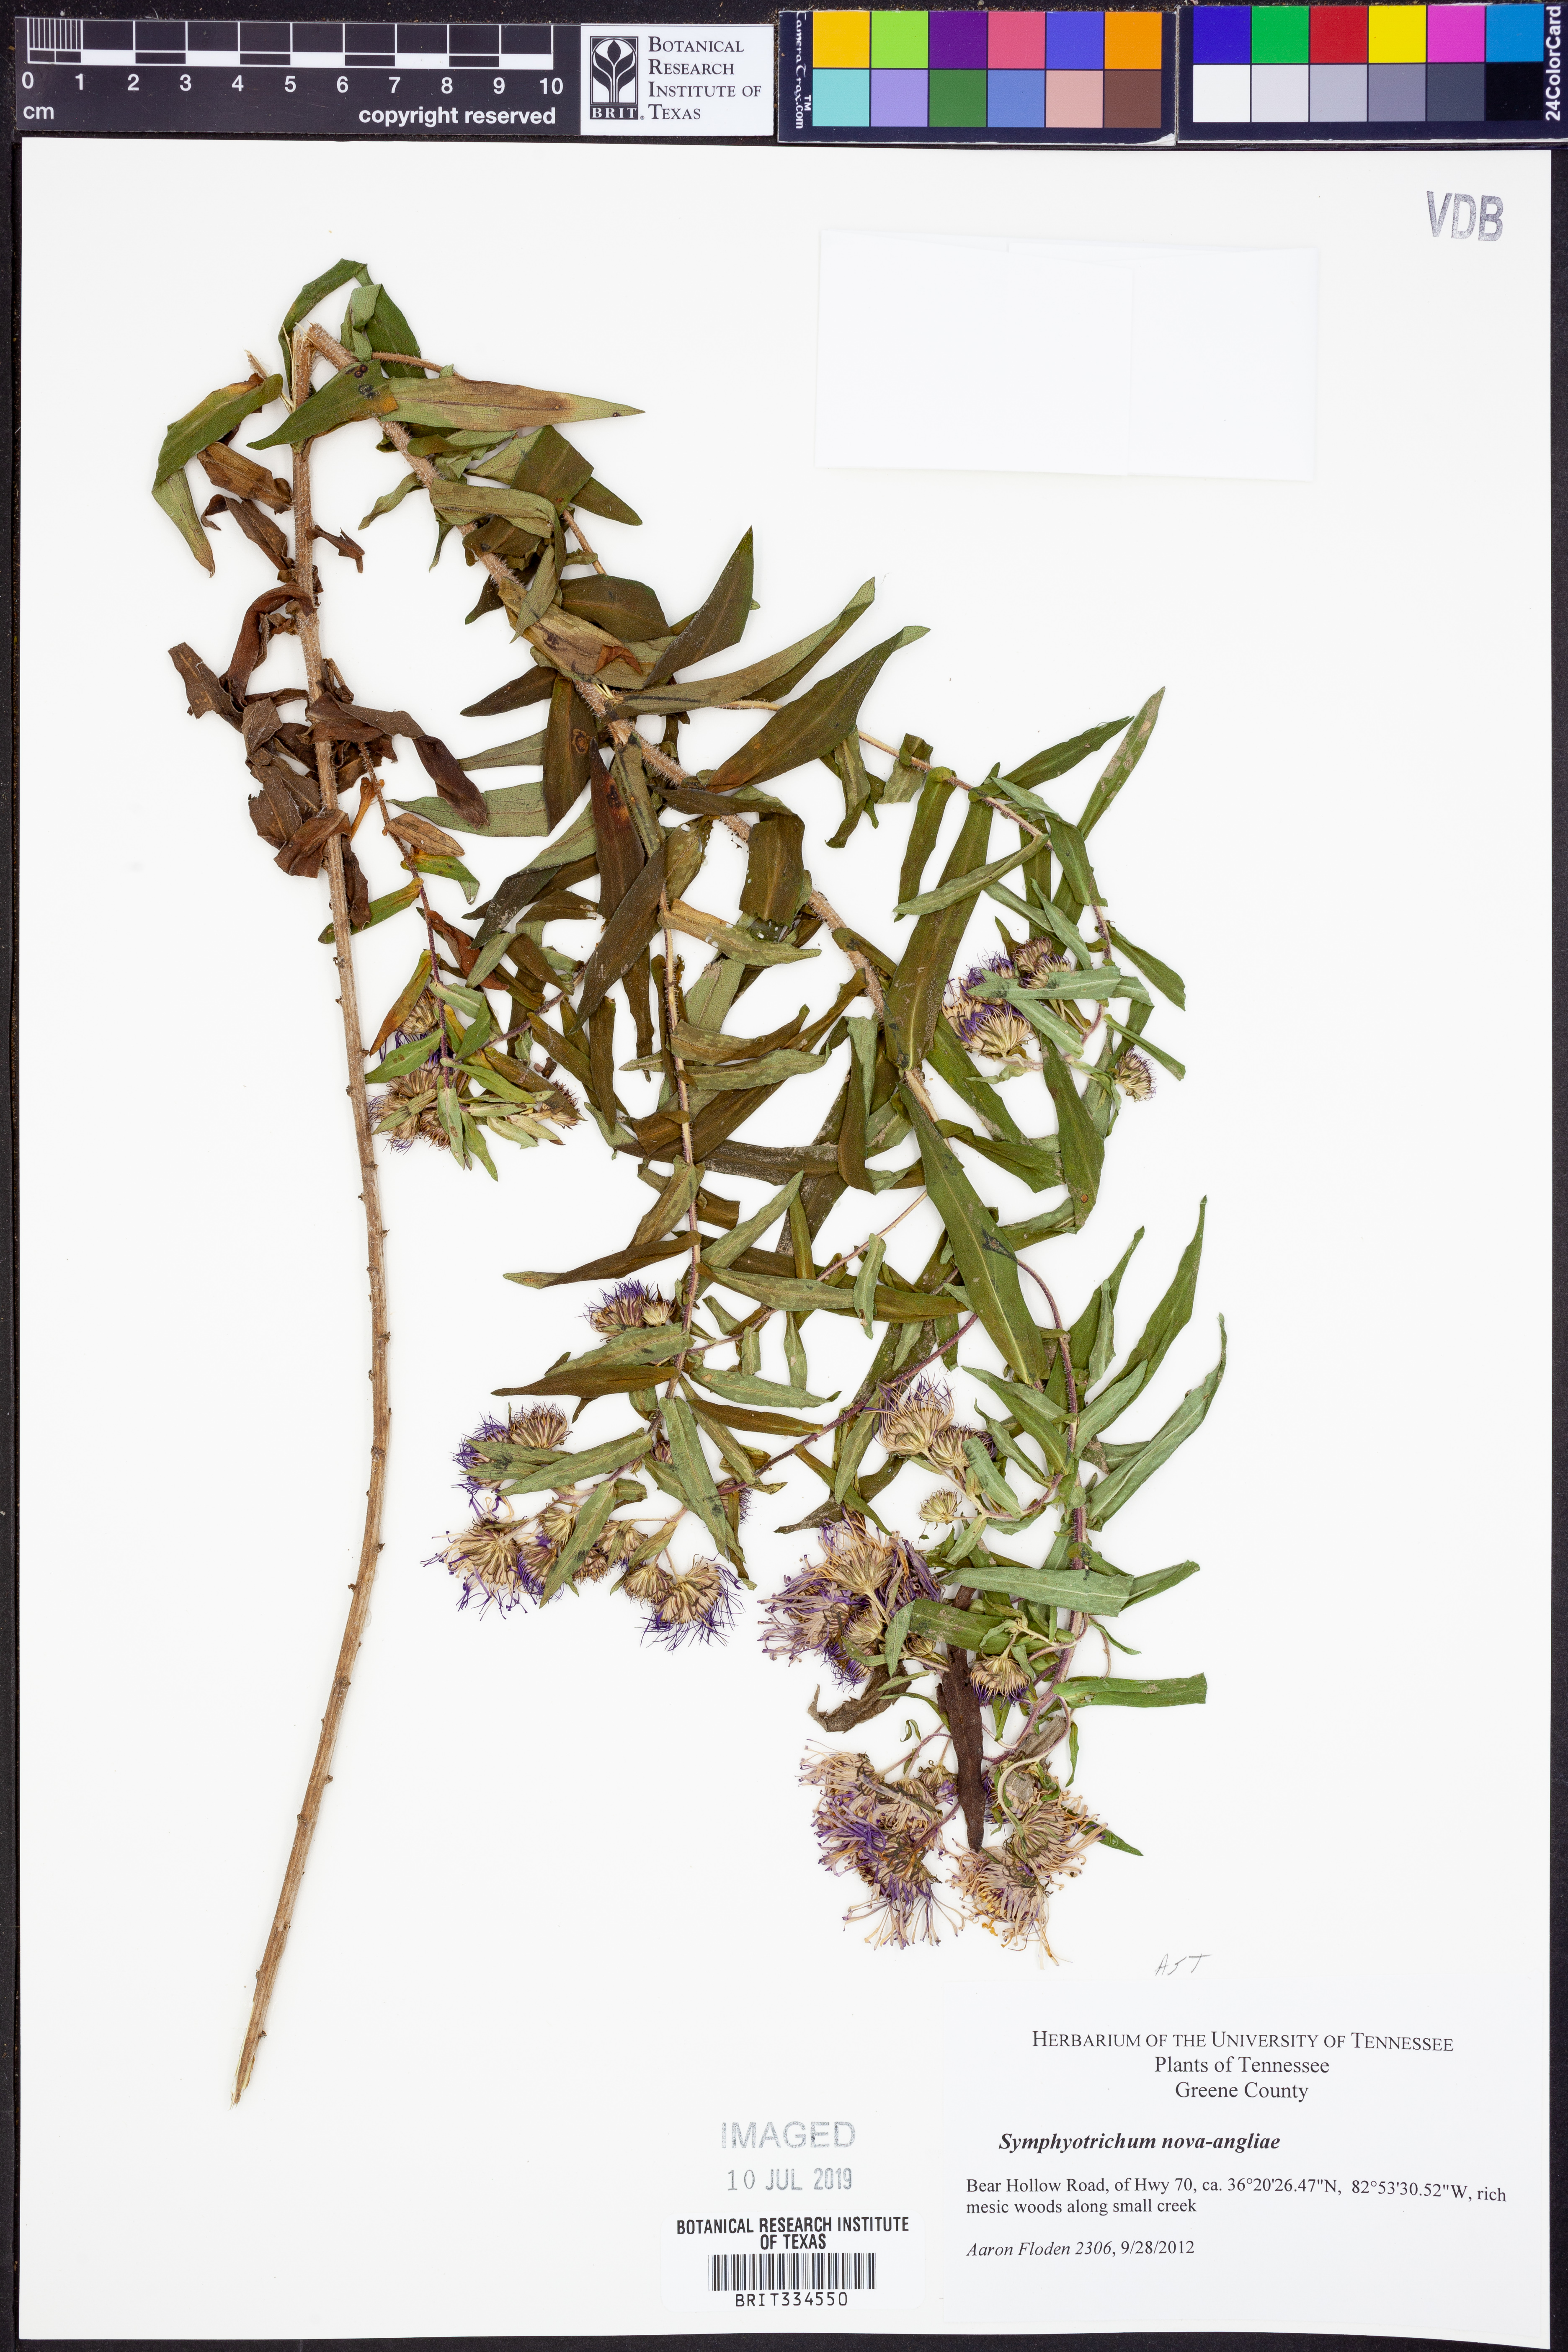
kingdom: Plantae
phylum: Tracheophyta
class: Magnoliopsida
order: Asterales
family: Asteraceae
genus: Symphyotrichum
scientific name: Symphyotrichum novae-angliae
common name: Michaelmas daisy
